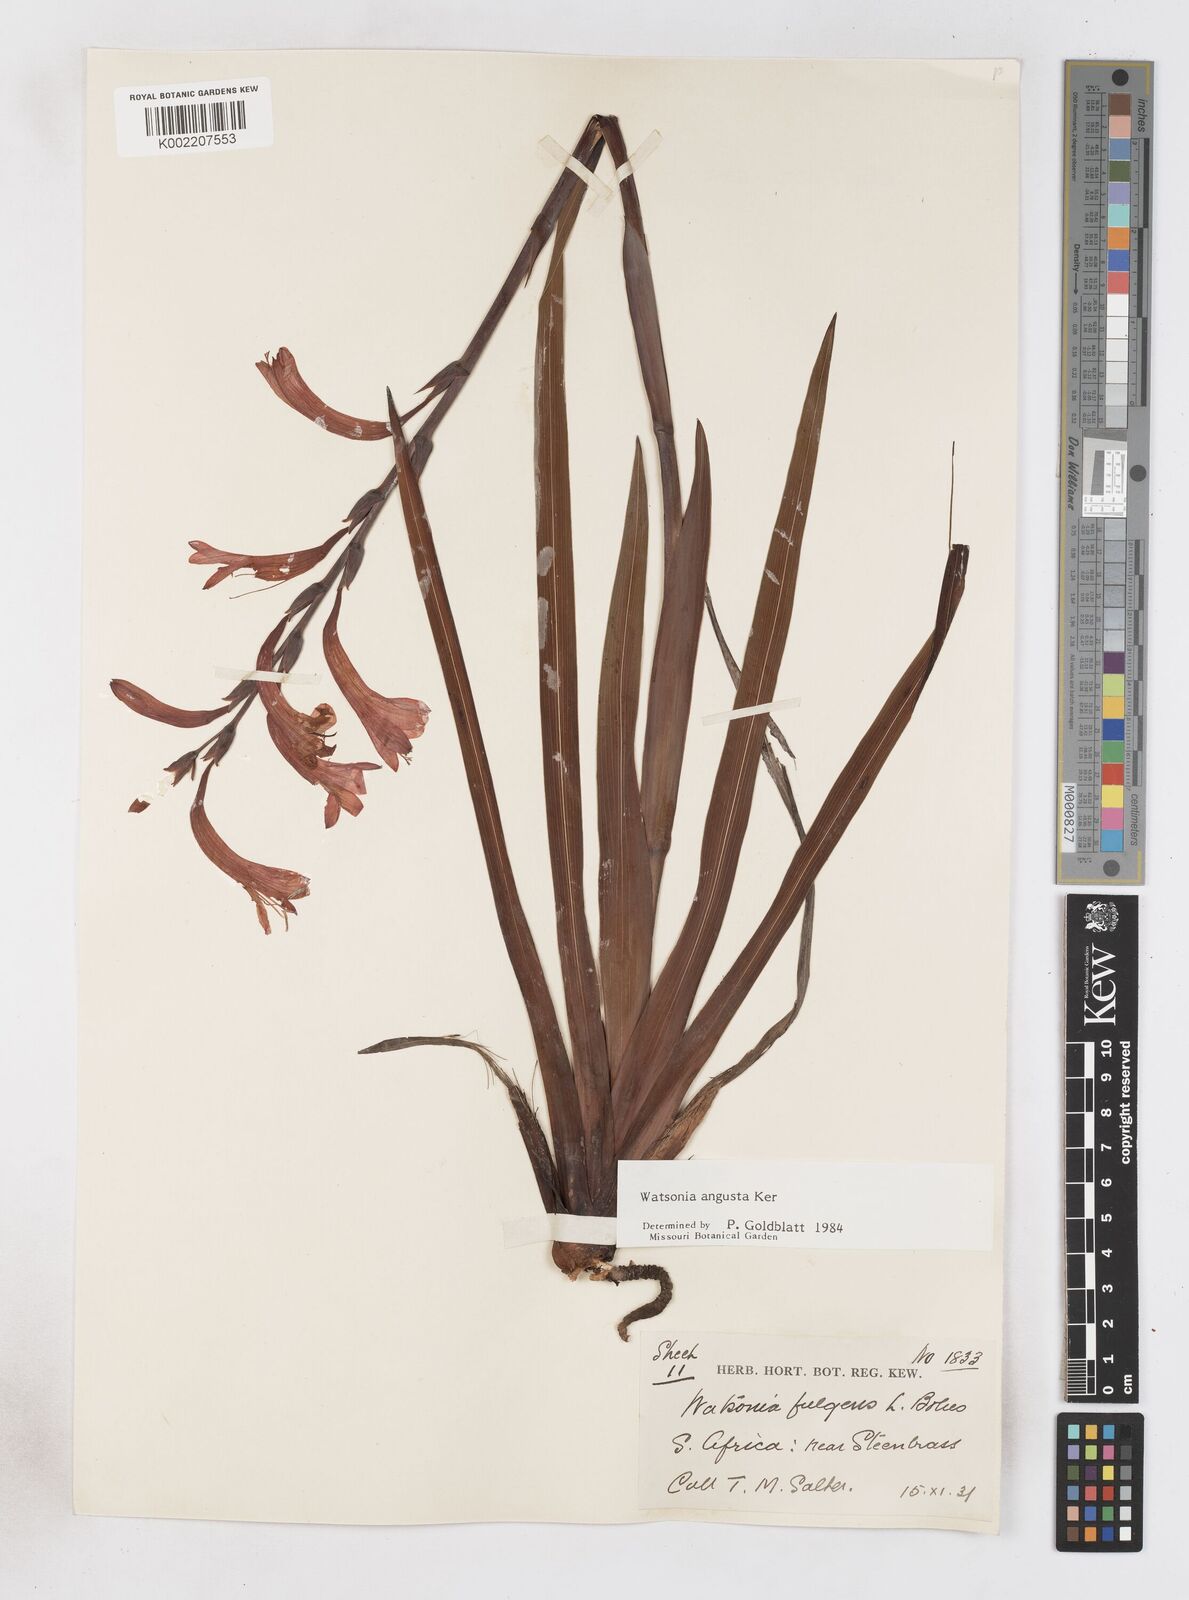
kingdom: Plantae
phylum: Tracheophyta
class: Liliopsida
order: Asparagales
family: Iridaceae
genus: Watsonia
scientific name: Watsonia angusta
